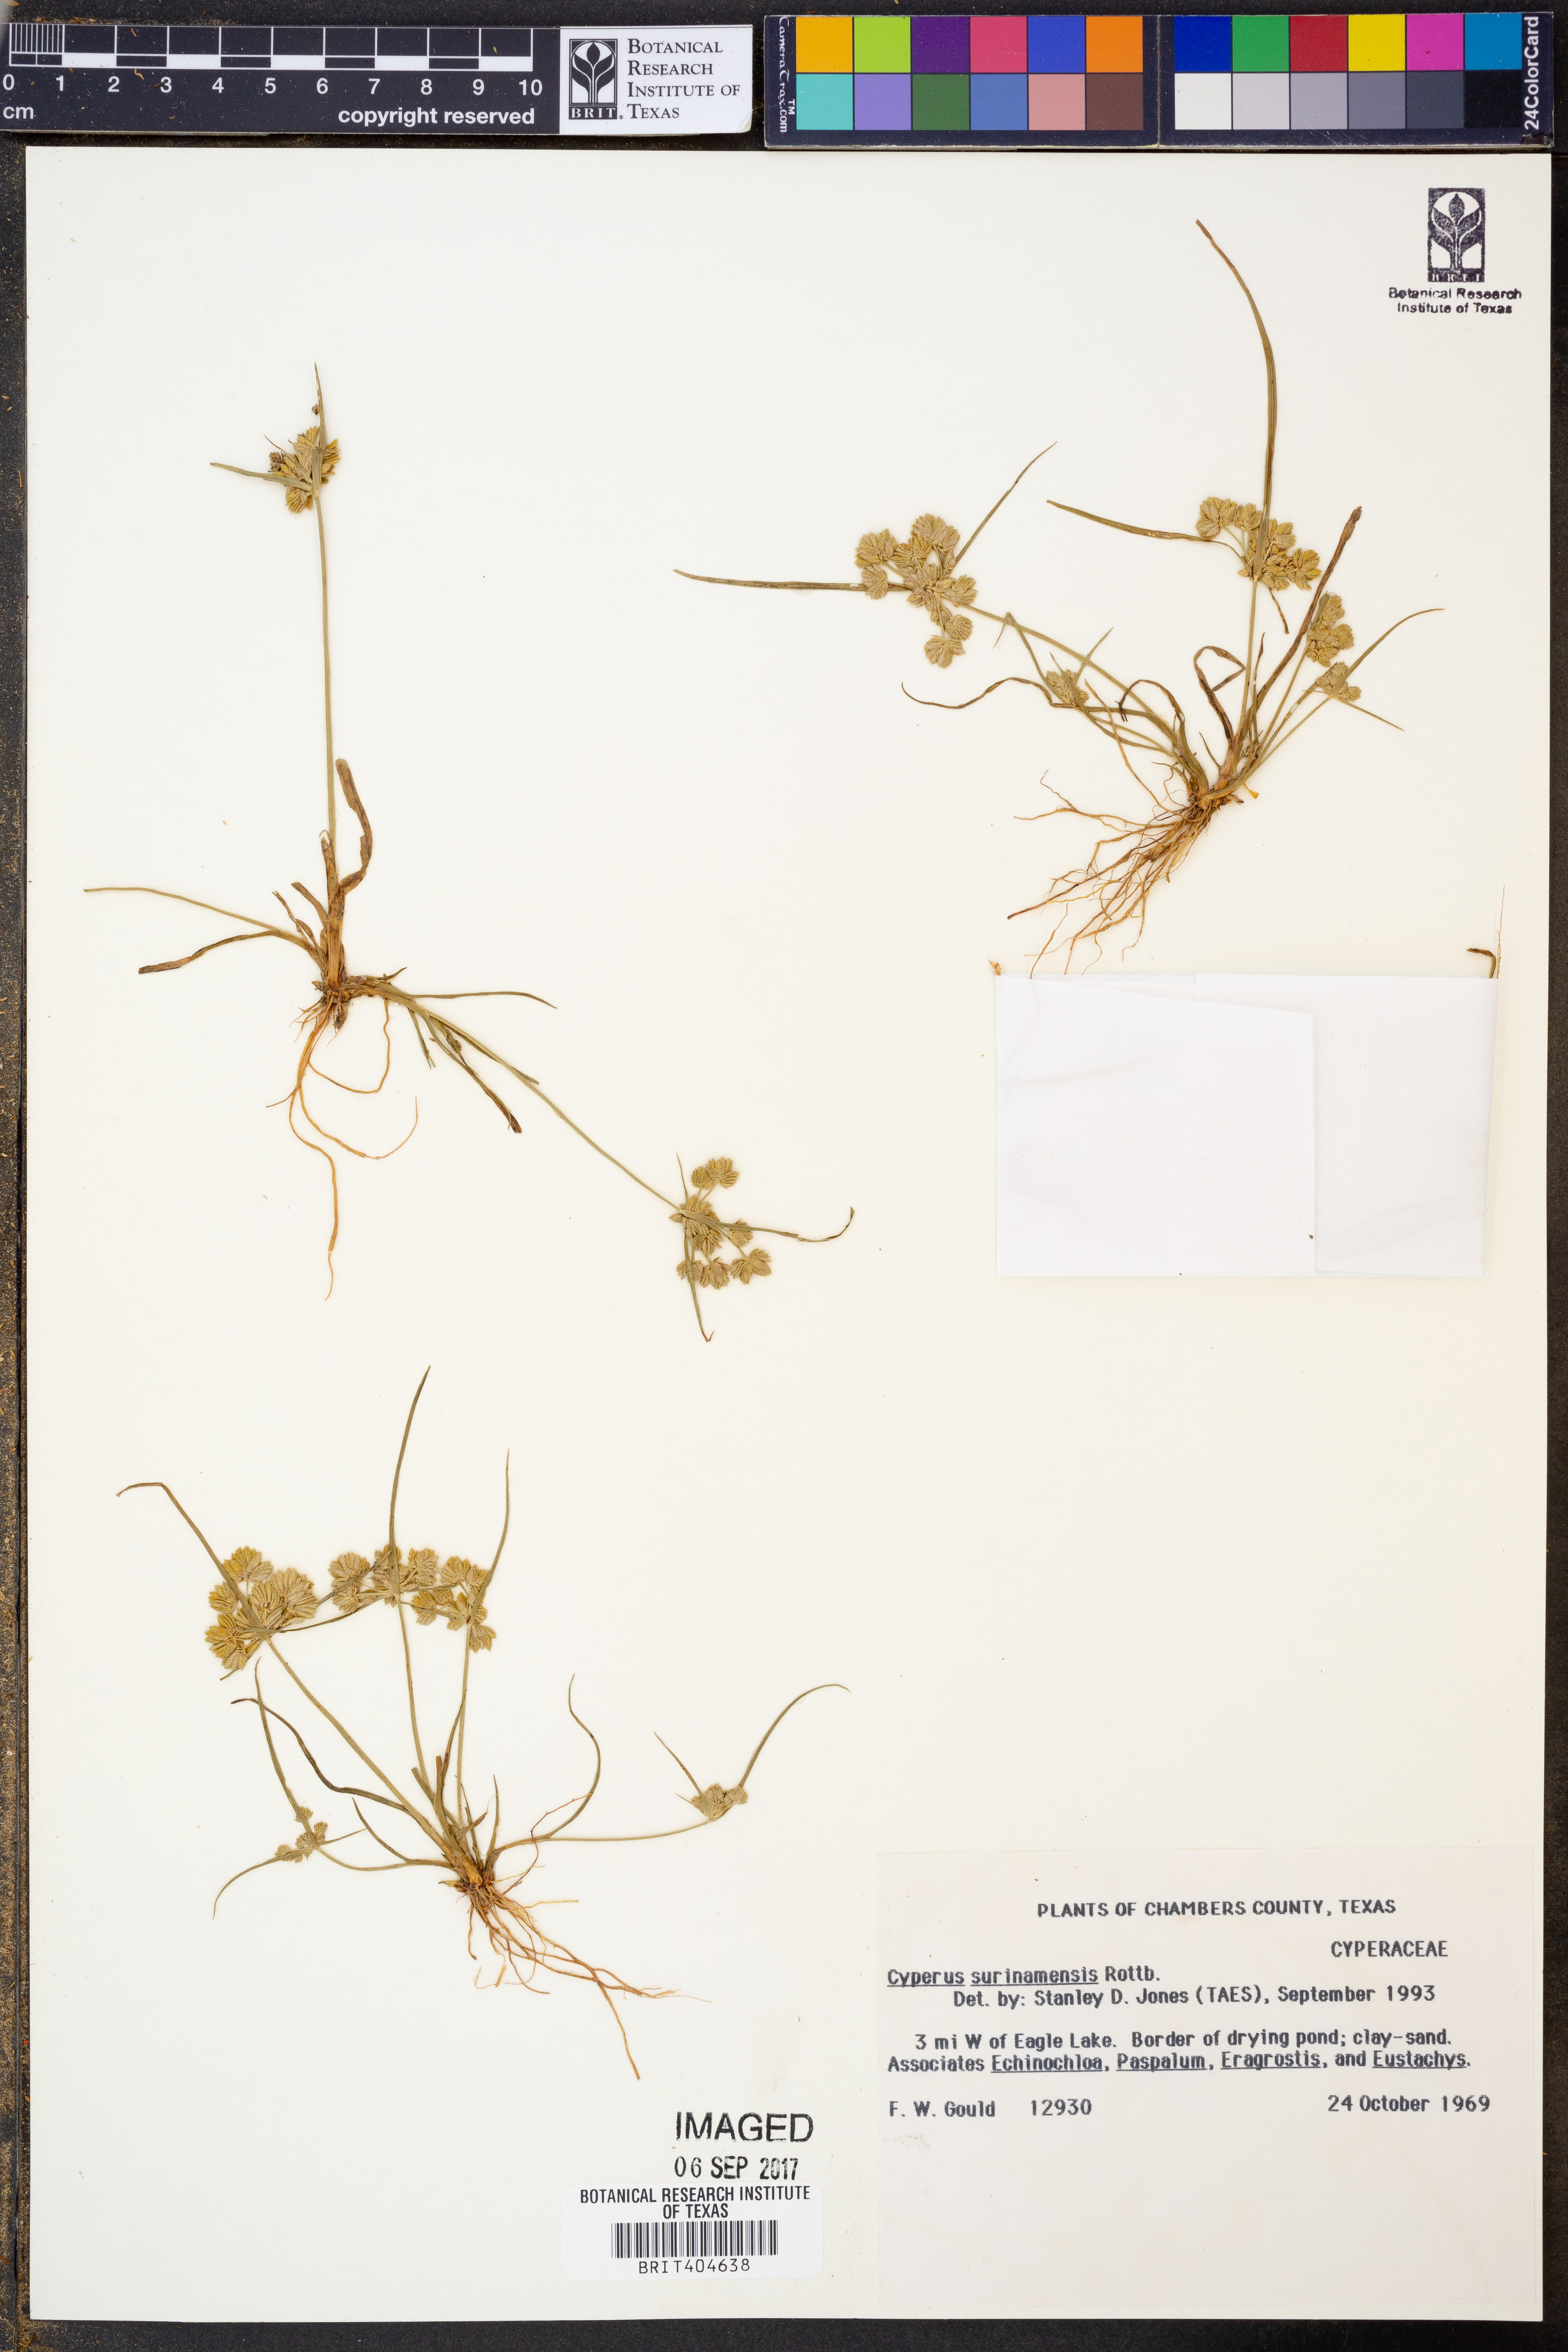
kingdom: Plantae
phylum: Tracheophyta
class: Liliopsida
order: Poales
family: Cyperaceae
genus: Cyperus
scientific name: Cyperus surinamensis
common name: Tropical flat sedge
